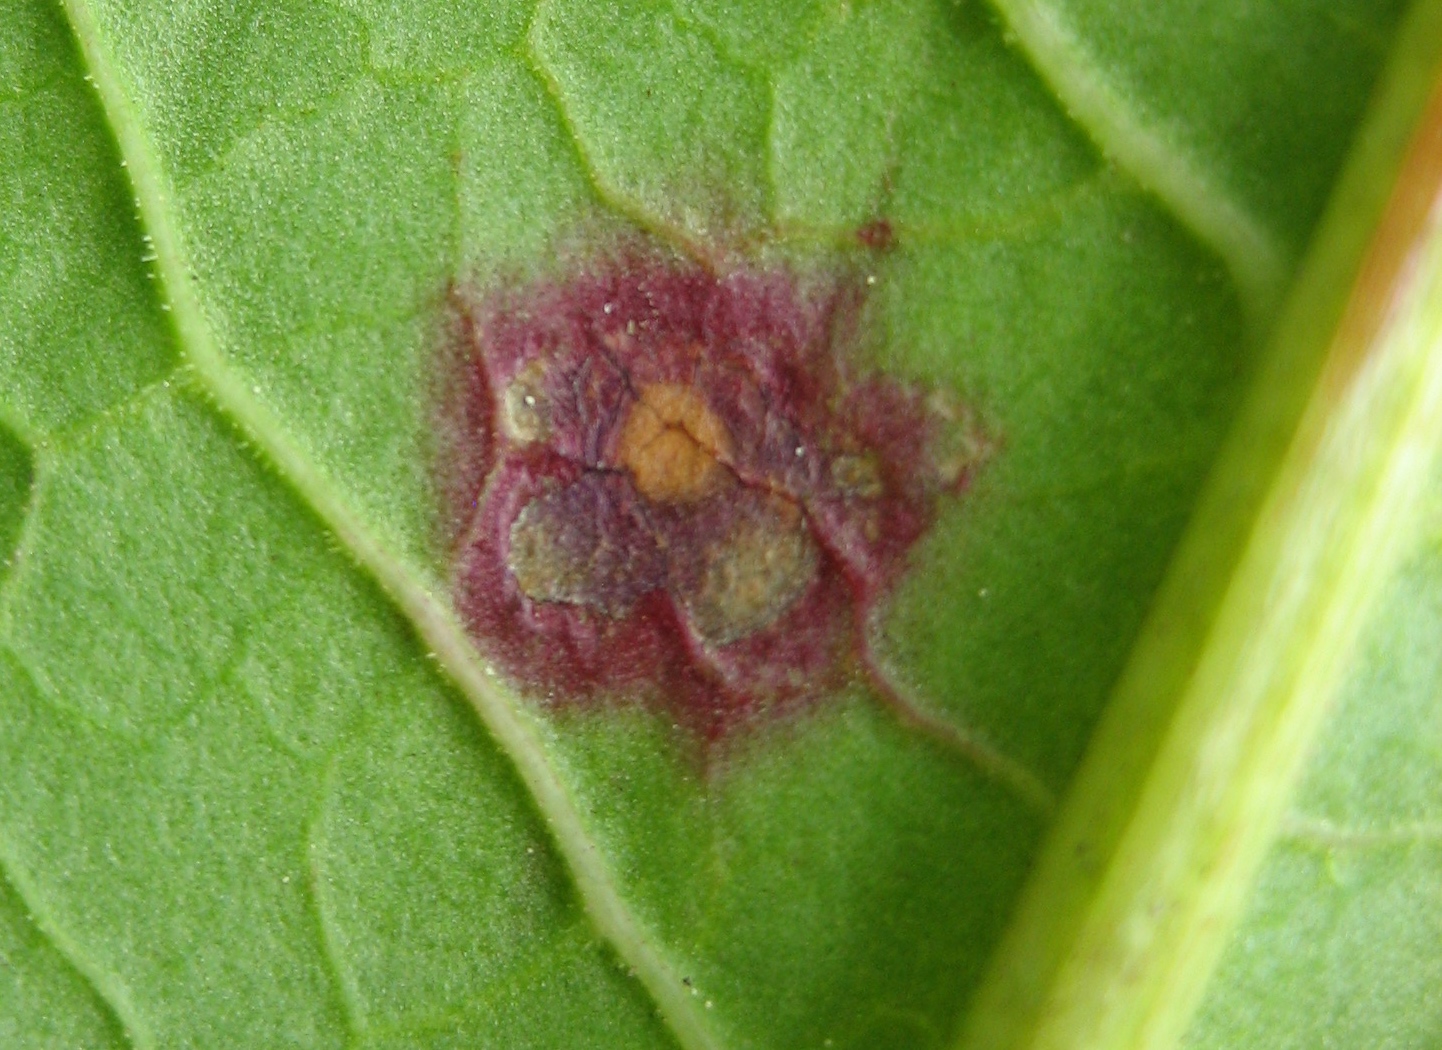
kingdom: Fungi
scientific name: Fungi
